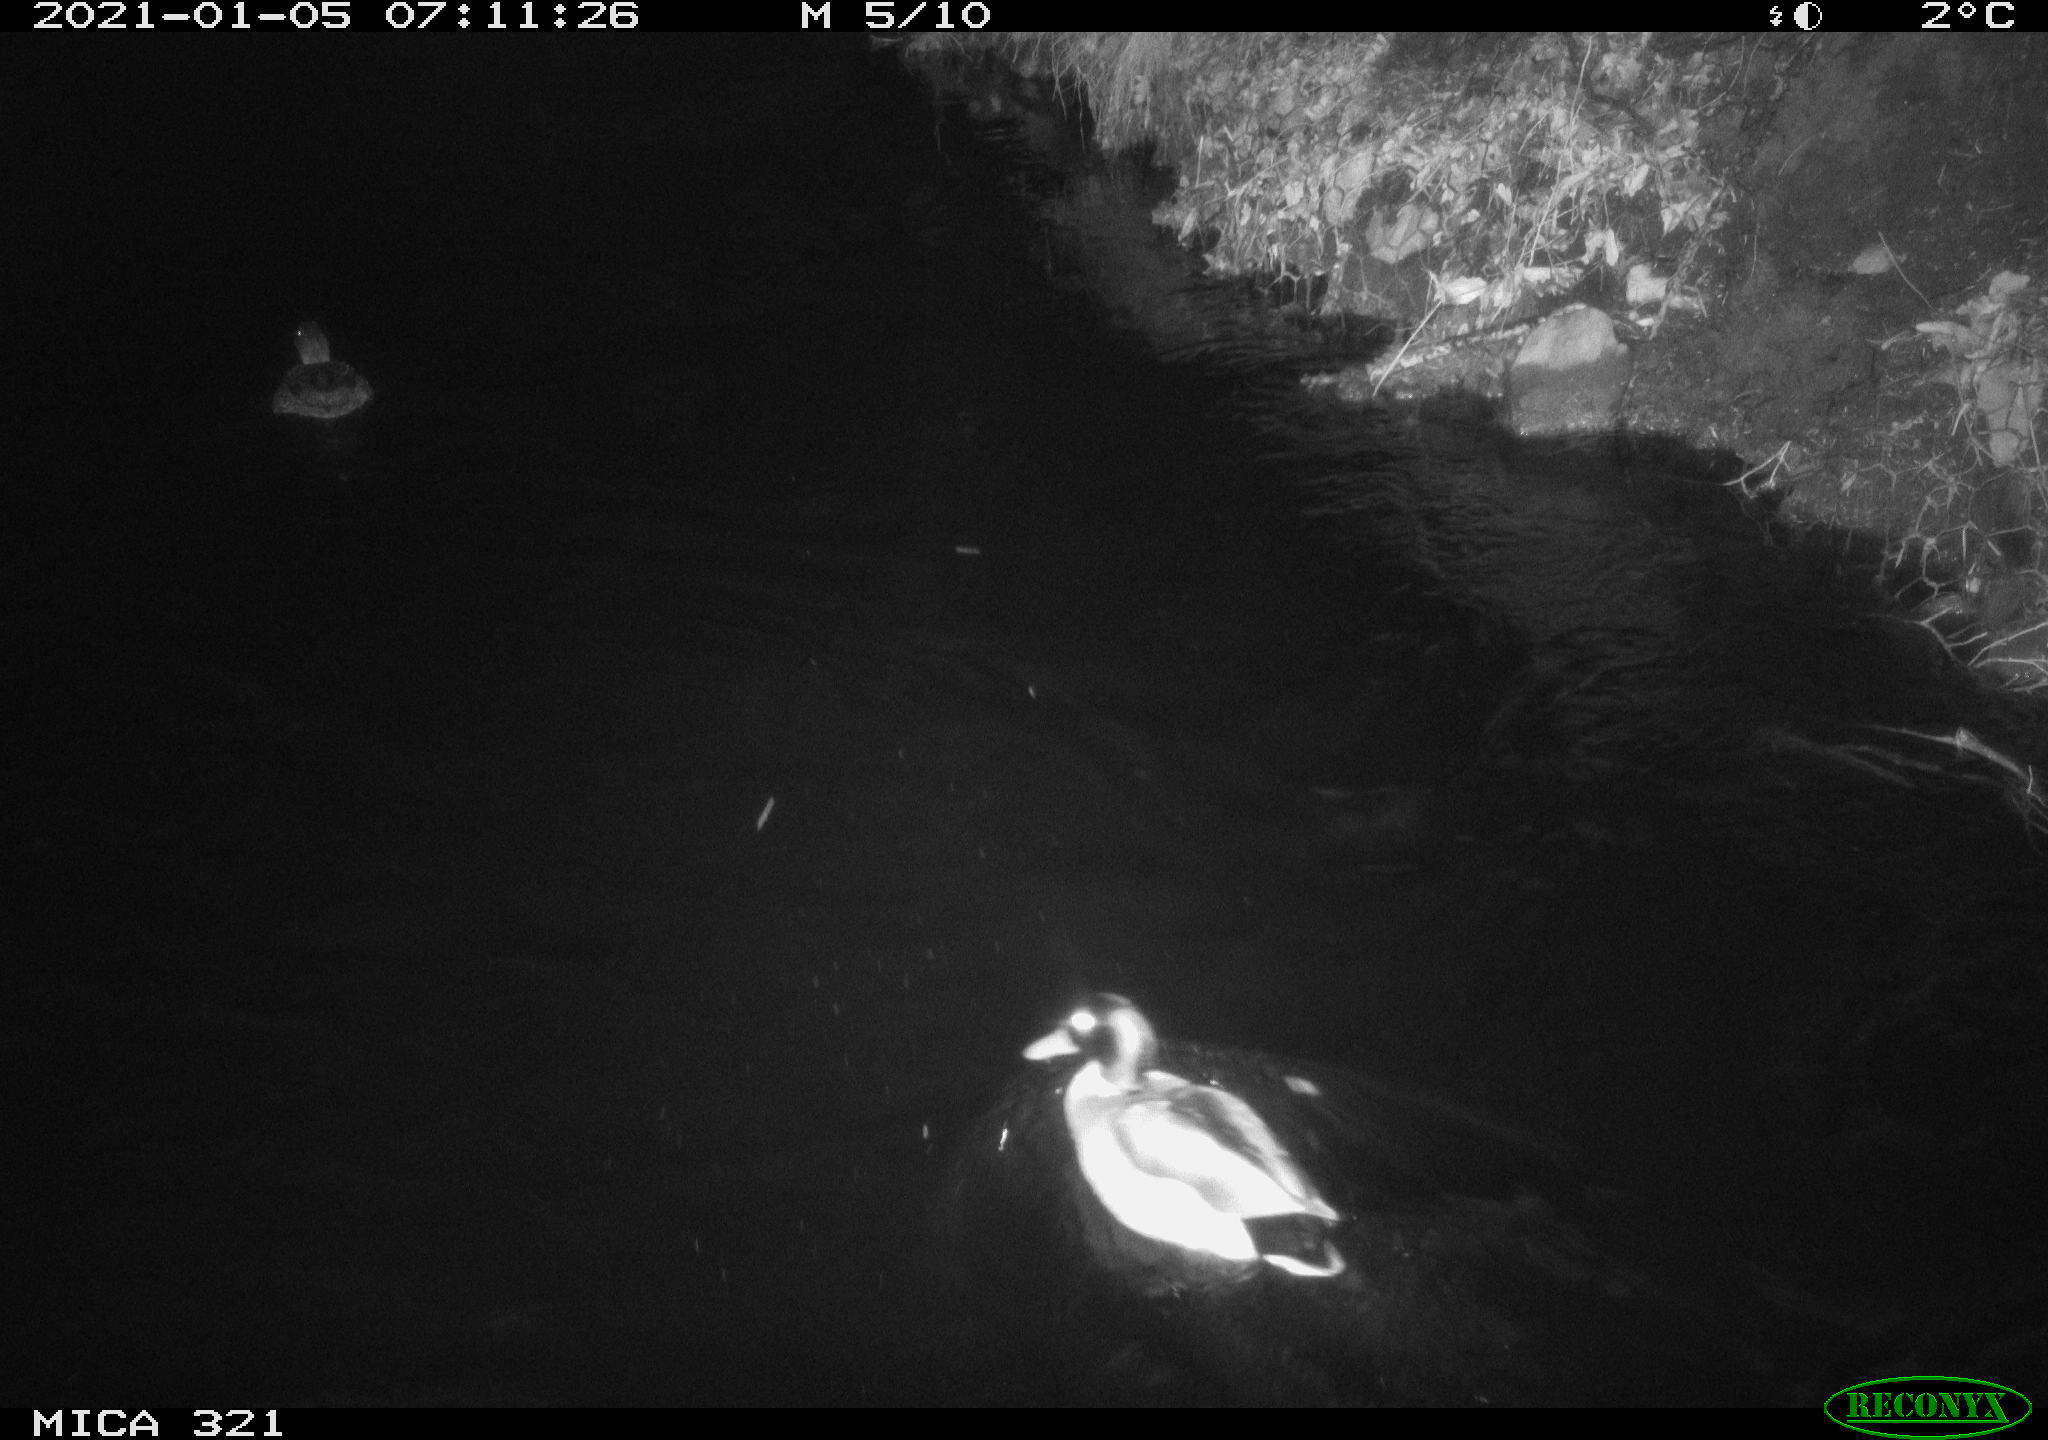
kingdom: Animalia
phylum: Chordata
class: Aves
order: Anseriformes
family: Anatidae
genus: Anas
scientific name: Anas platyrhynchos
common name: Mallard
